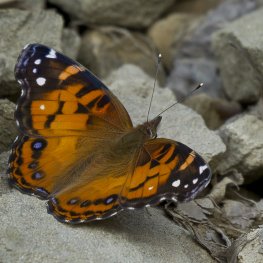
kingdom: Animalia
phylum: Arthropoda
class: Insecta
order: Lepidoptera
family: Nymphalidae
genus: Vanessa
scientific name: Vanessa virginiensis
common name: American Lady
